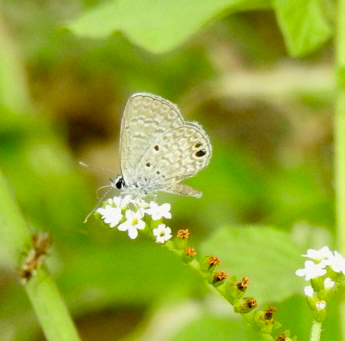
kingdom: Animalia
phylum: Arthropoda
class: Insecta
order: Lepidoptera
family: Lycaenidae
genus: Hemiargus
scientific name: Hemiargus ceraunus
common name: Ceraunus Blue
